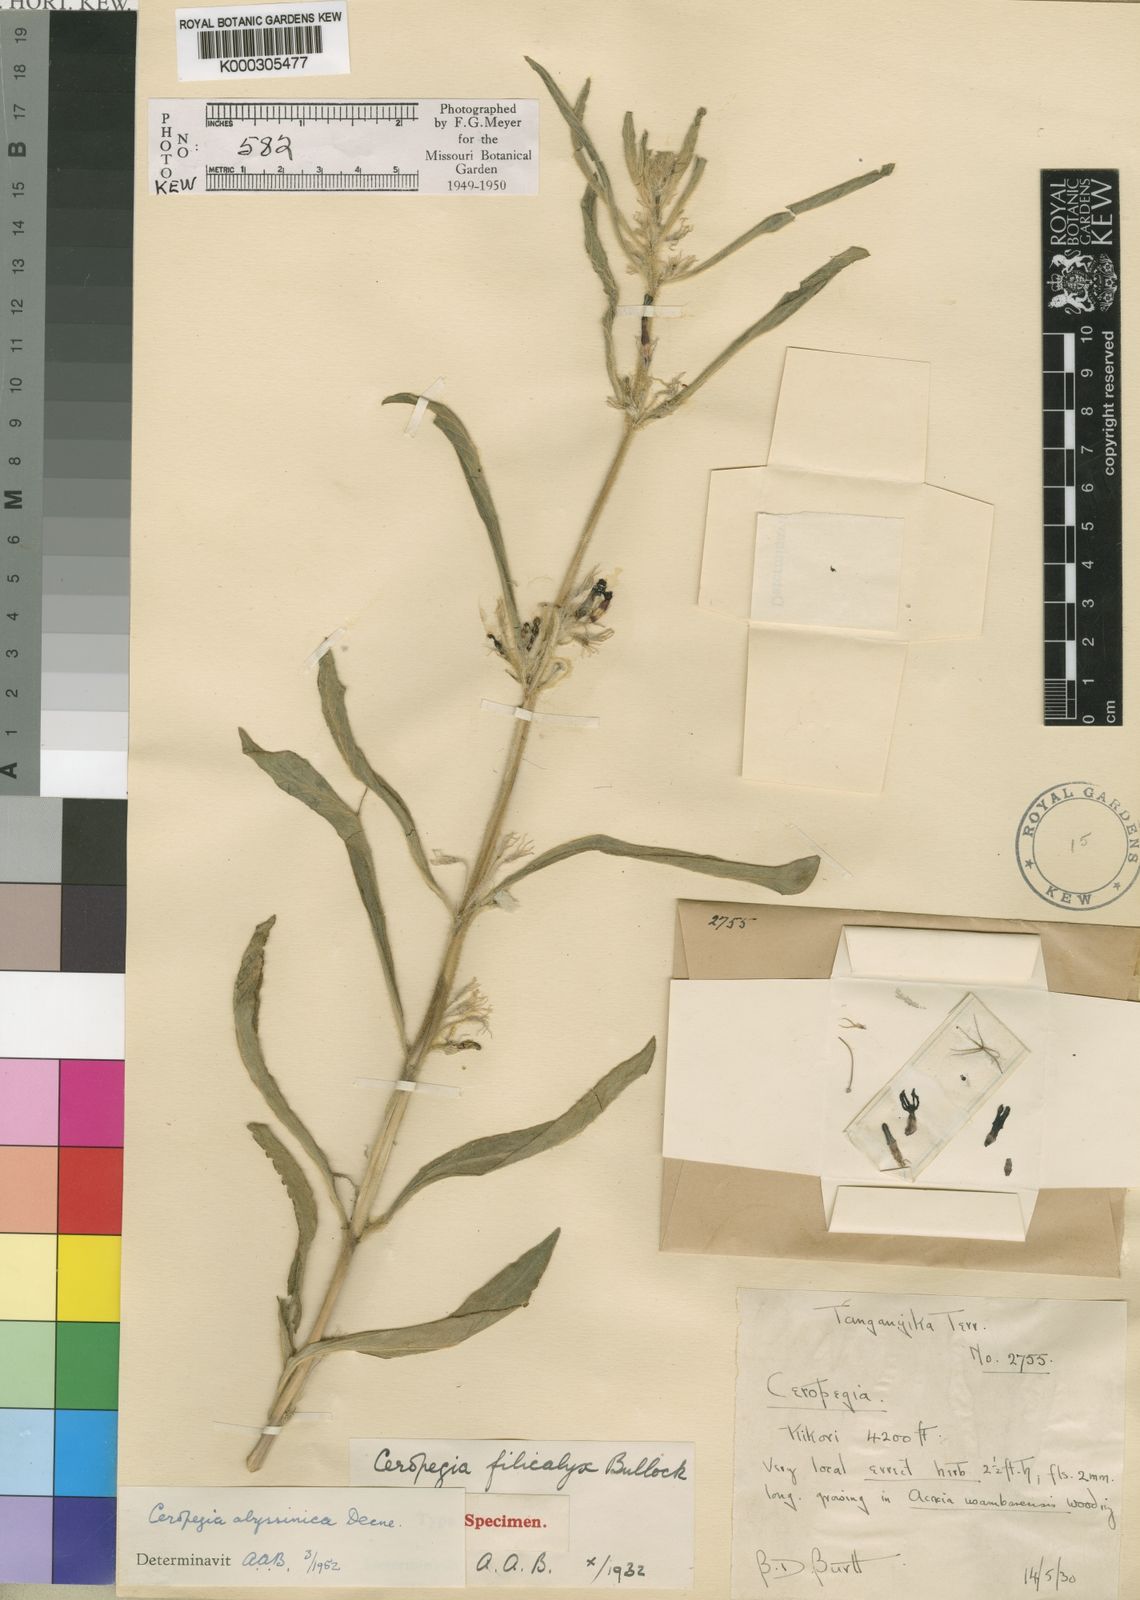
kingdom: Plantae
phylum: Tracheophyta
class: Magnoliopsida
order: Gentianales
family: Apocynaceae
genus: Ceropegia
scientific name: Ceropegia abyssinica
